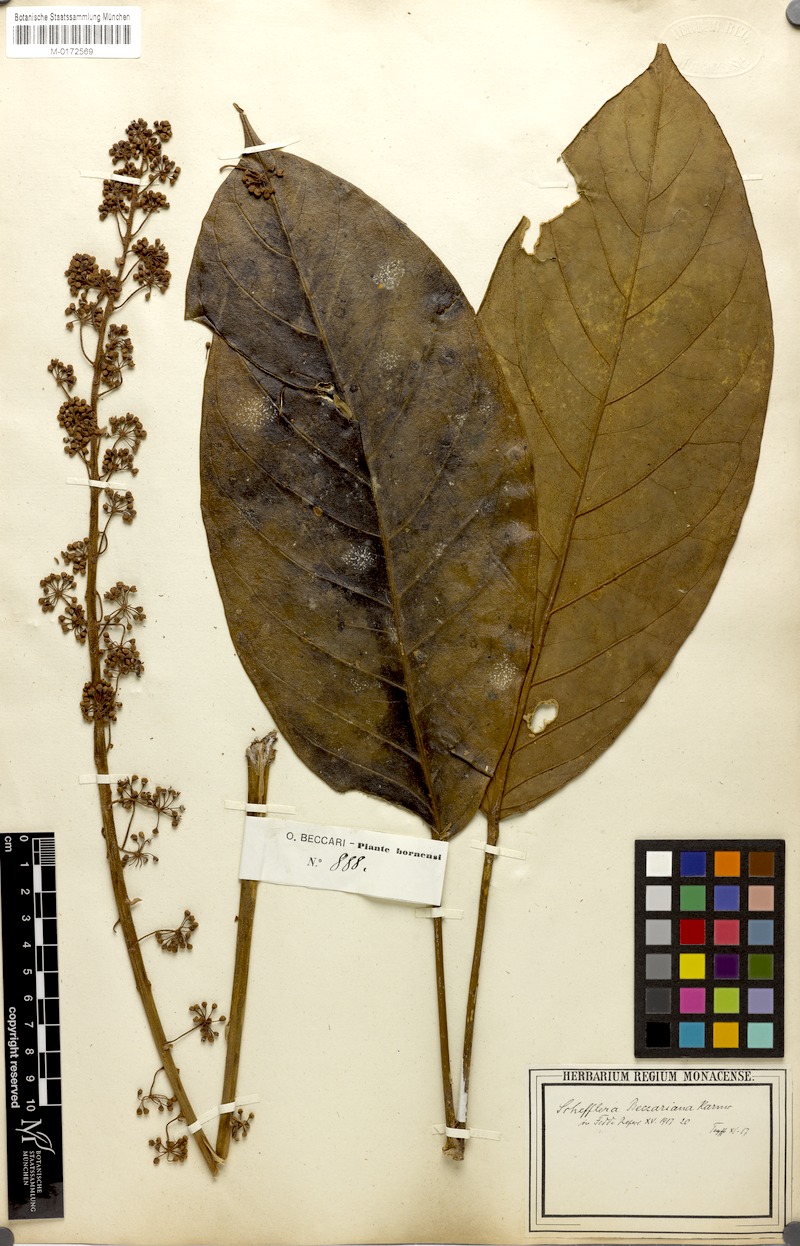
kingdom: Plantae
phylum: Tracheophyta
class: Magnoliopsida
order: Apiales
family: Araliaceae
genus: Heptapleurum
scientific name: Heptapleurum beccarianum
